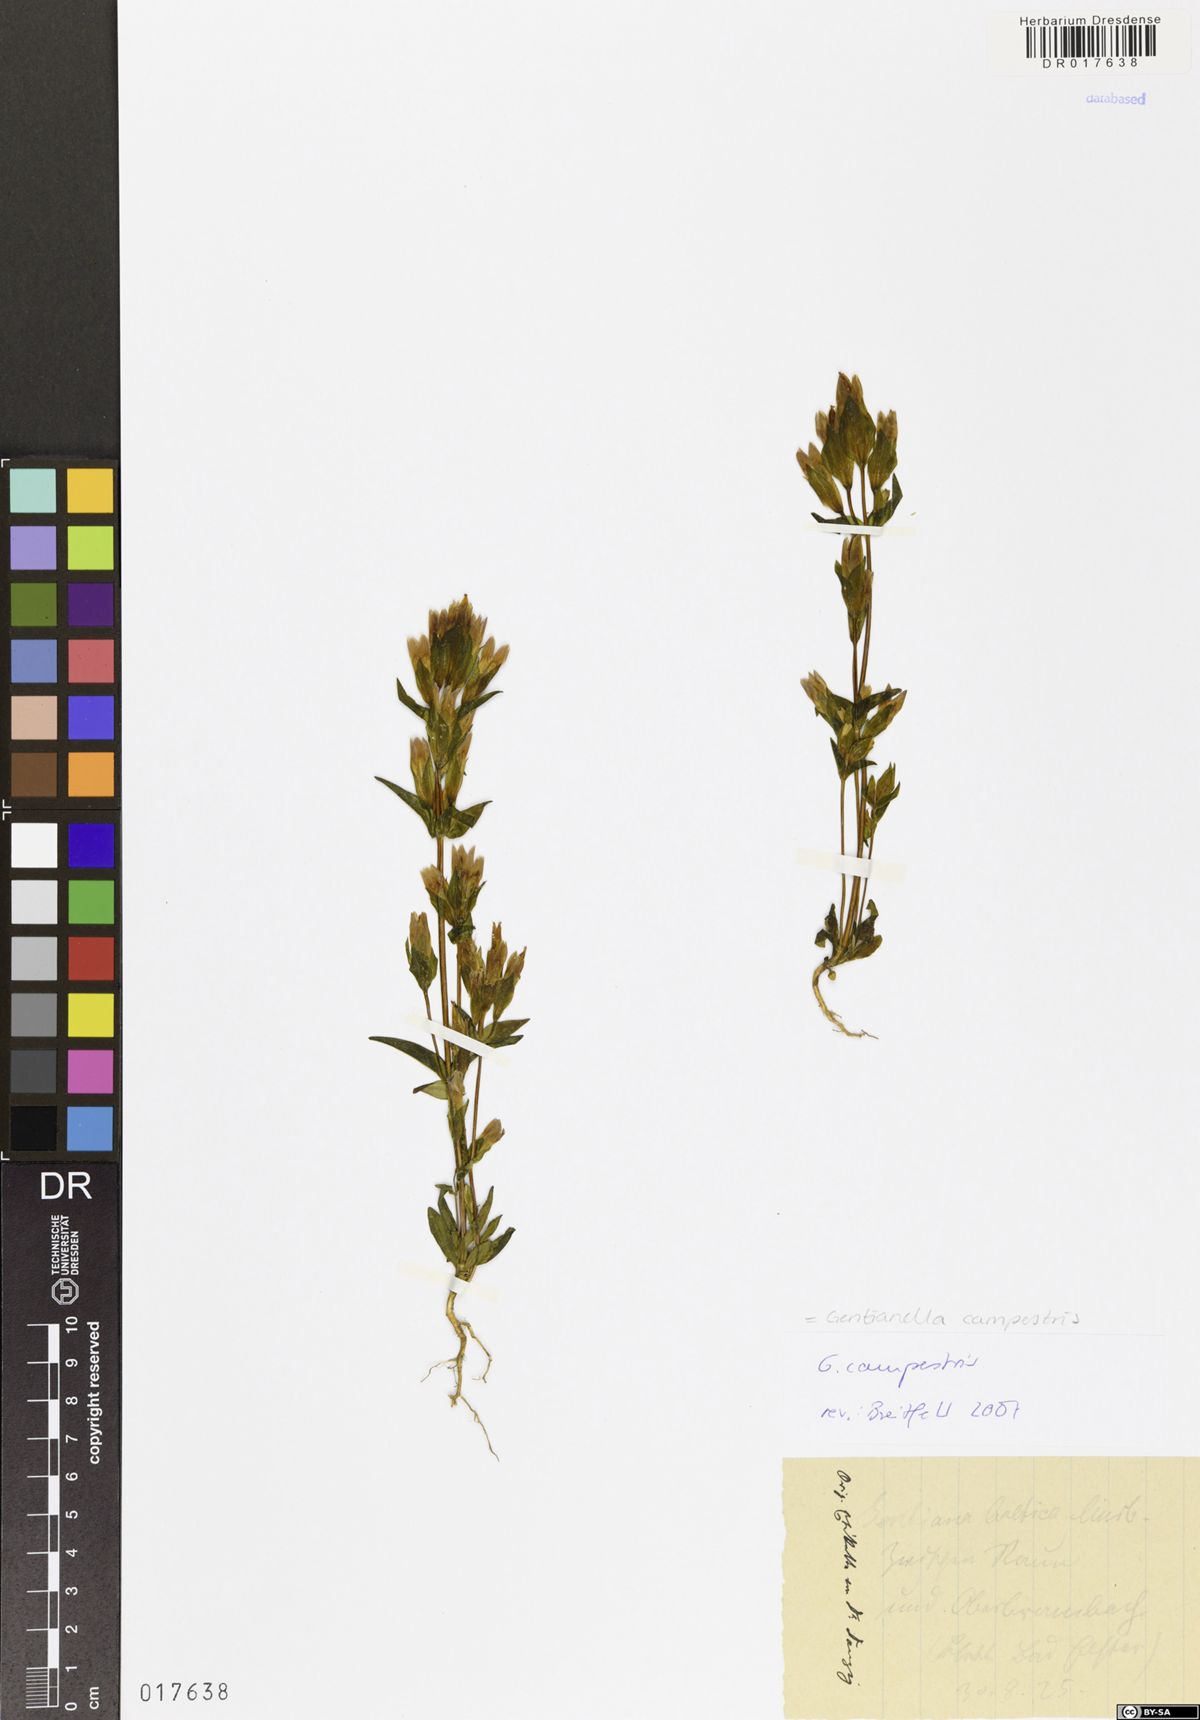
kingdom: Plantae
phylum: Tracheophyta
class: Magnoliopsida
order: Gentianales
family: Gentianaceae
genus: Gentianella
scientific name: Gentianella campestris
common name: Field gentian
